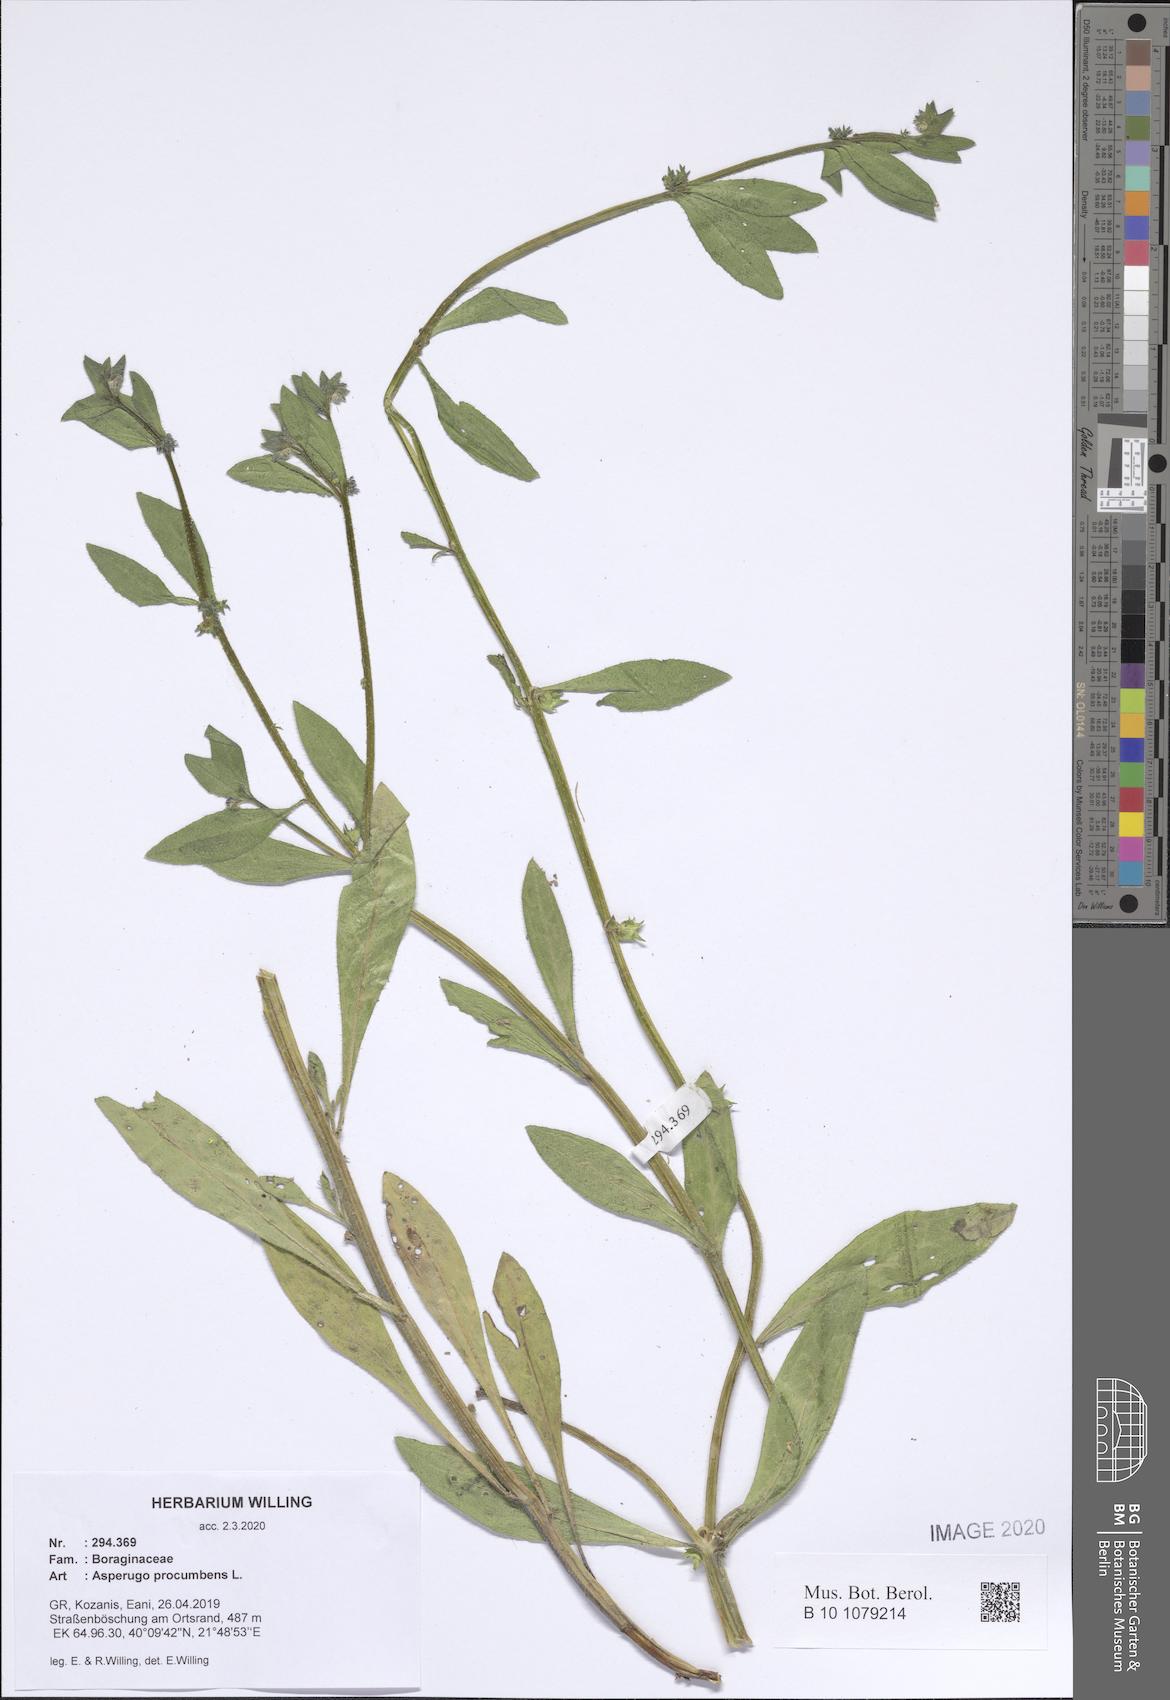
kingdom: Plantae
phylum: Tracheophyta
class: Magnoliopsida
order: Boraginales
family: Boraginaceae
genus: Asperugo
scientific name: Asperugo procumbens
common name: Madwort
